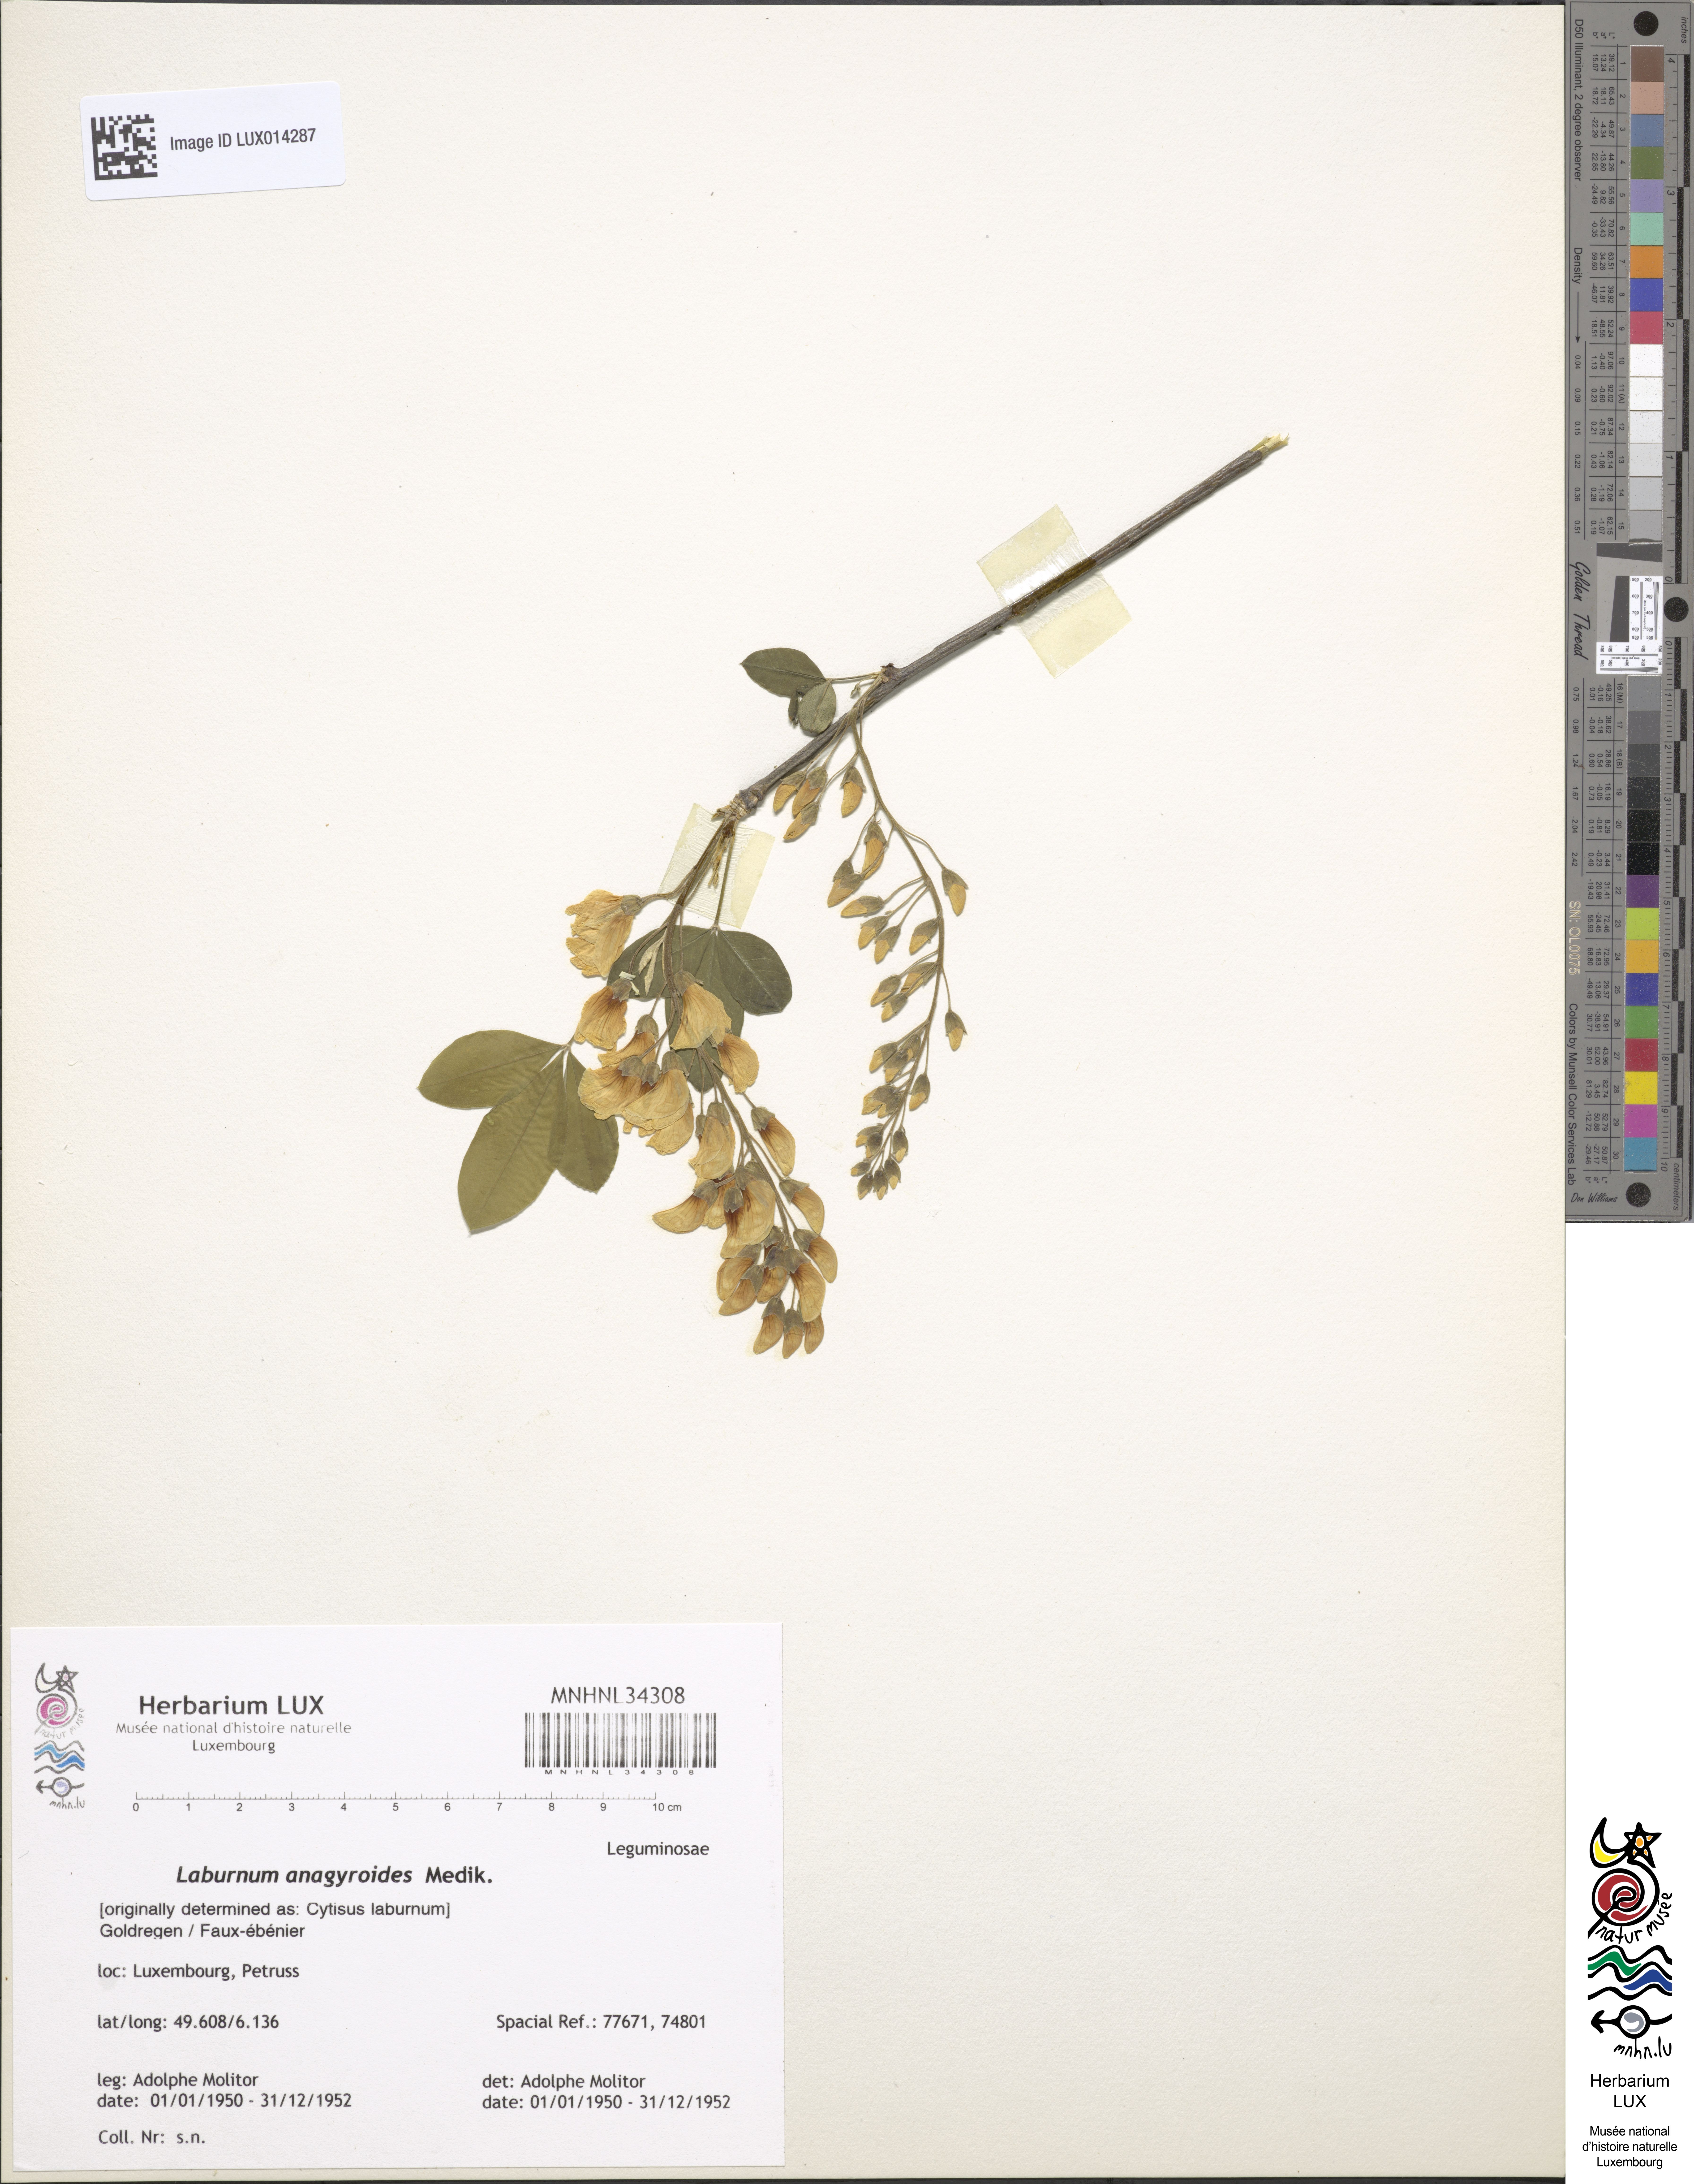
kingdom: Plantae
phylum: Tracheophyta
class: Magnoliopsida
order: Fabales
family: Fabaceae
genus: Laburnum
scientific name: Laburnum anagyroides
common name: Laburnum
